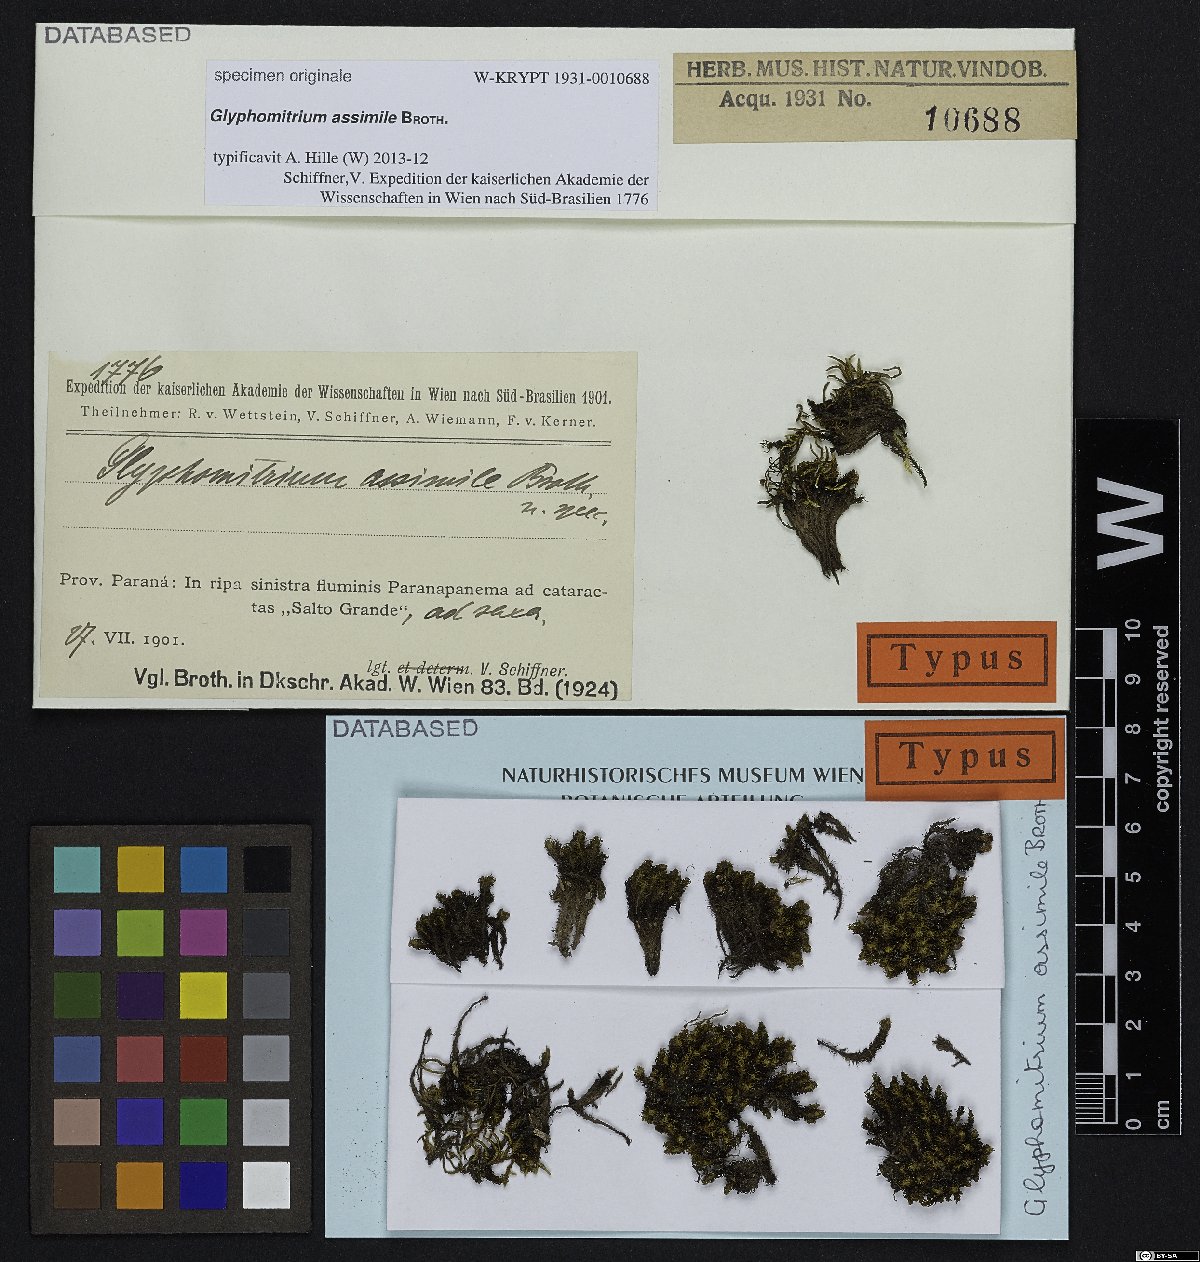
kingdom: Plantae
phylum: Bryophyta
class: Bryopsida
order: Grimmiales
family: Ptychomitriaceae
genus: Glyphomitrium
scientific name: Glyphomitrium
